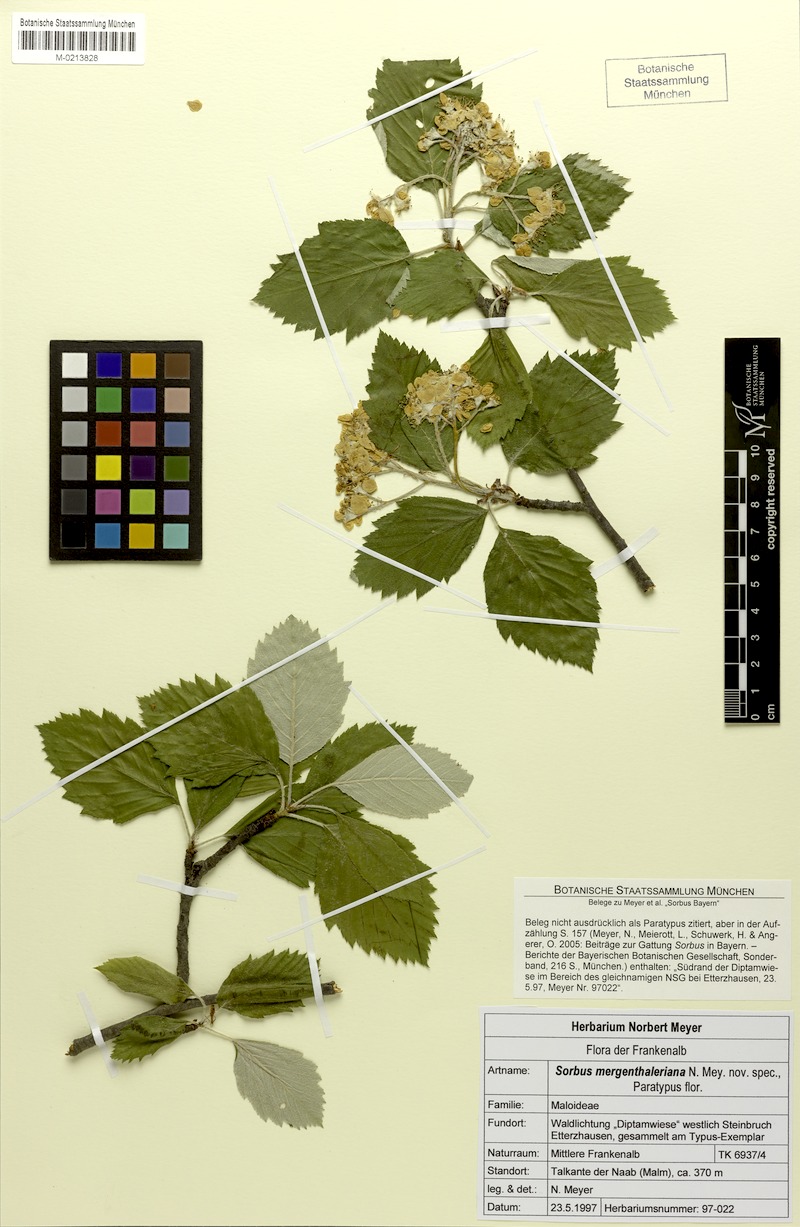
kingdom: Plantae
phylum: Tracheophyta
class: Magnoliopsida
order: Rosales
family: Rosaceae
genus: Karpatiosorbus
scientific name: Karpatiosorbus mergenthaleriana
